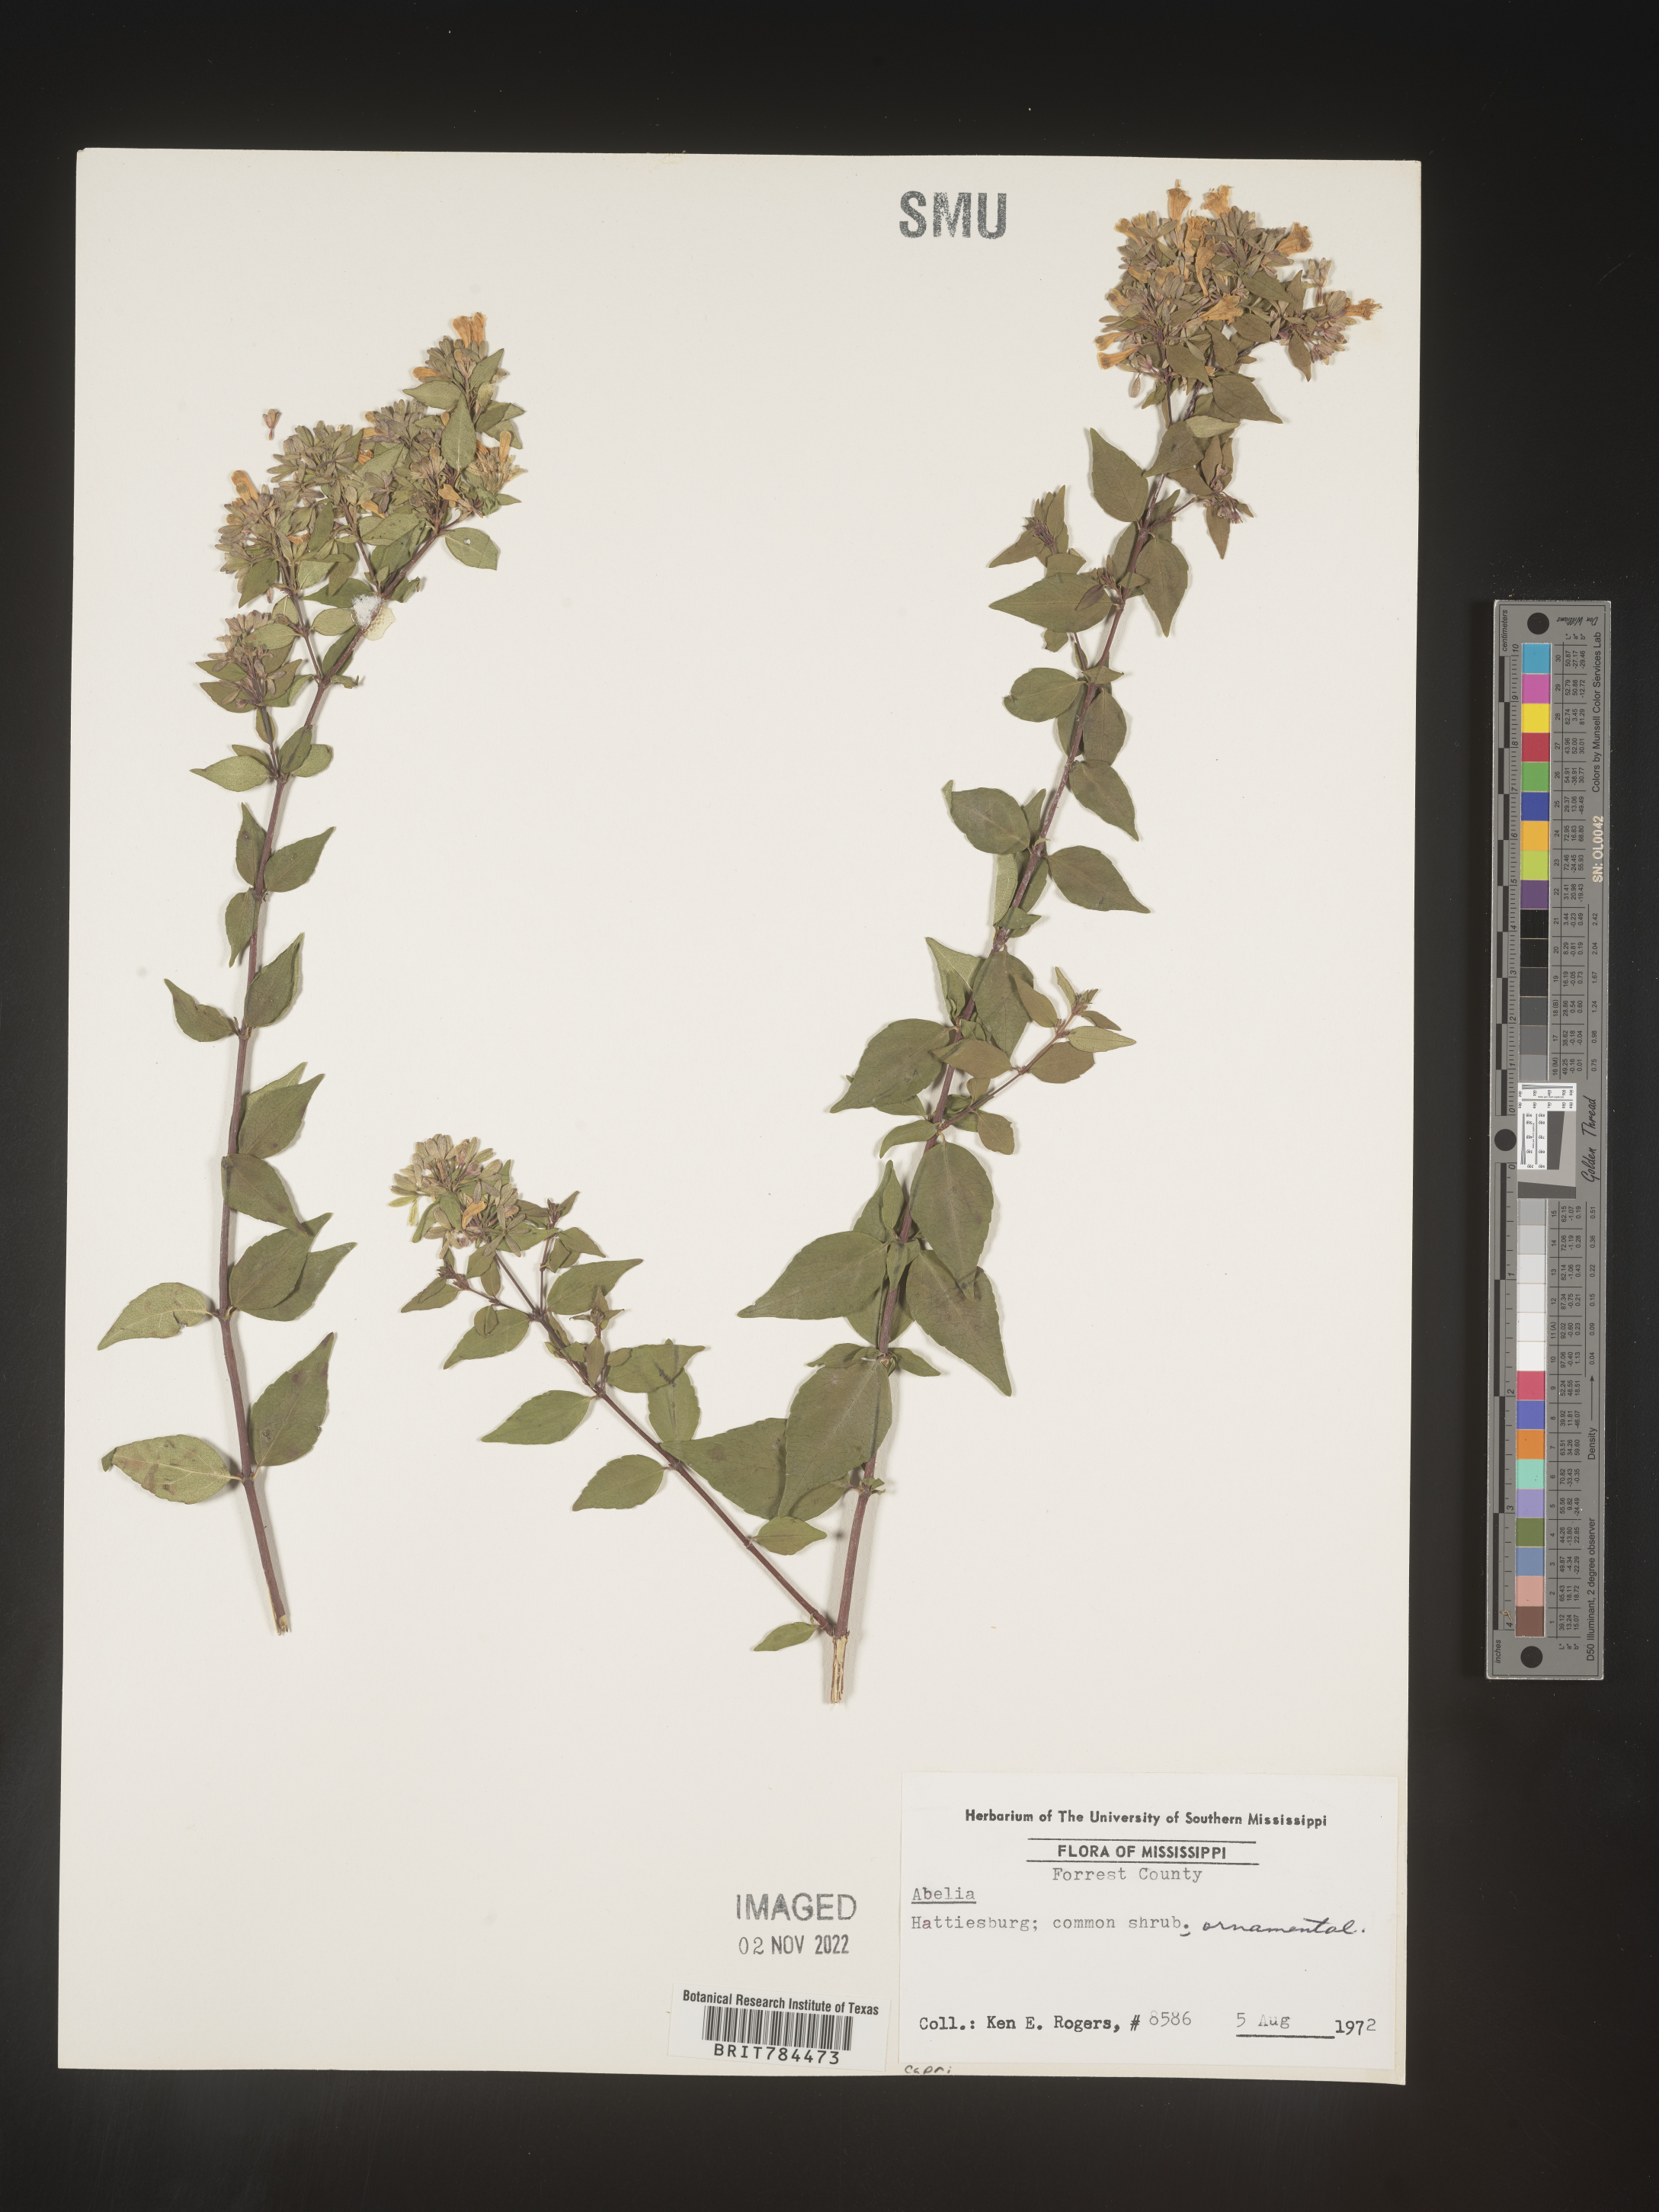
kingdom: Plantae
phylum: Tracheophyta
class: Magnoliopsida
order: Dipsacales
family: Caprifoliaceae
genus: Abelia
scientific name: Abelia
